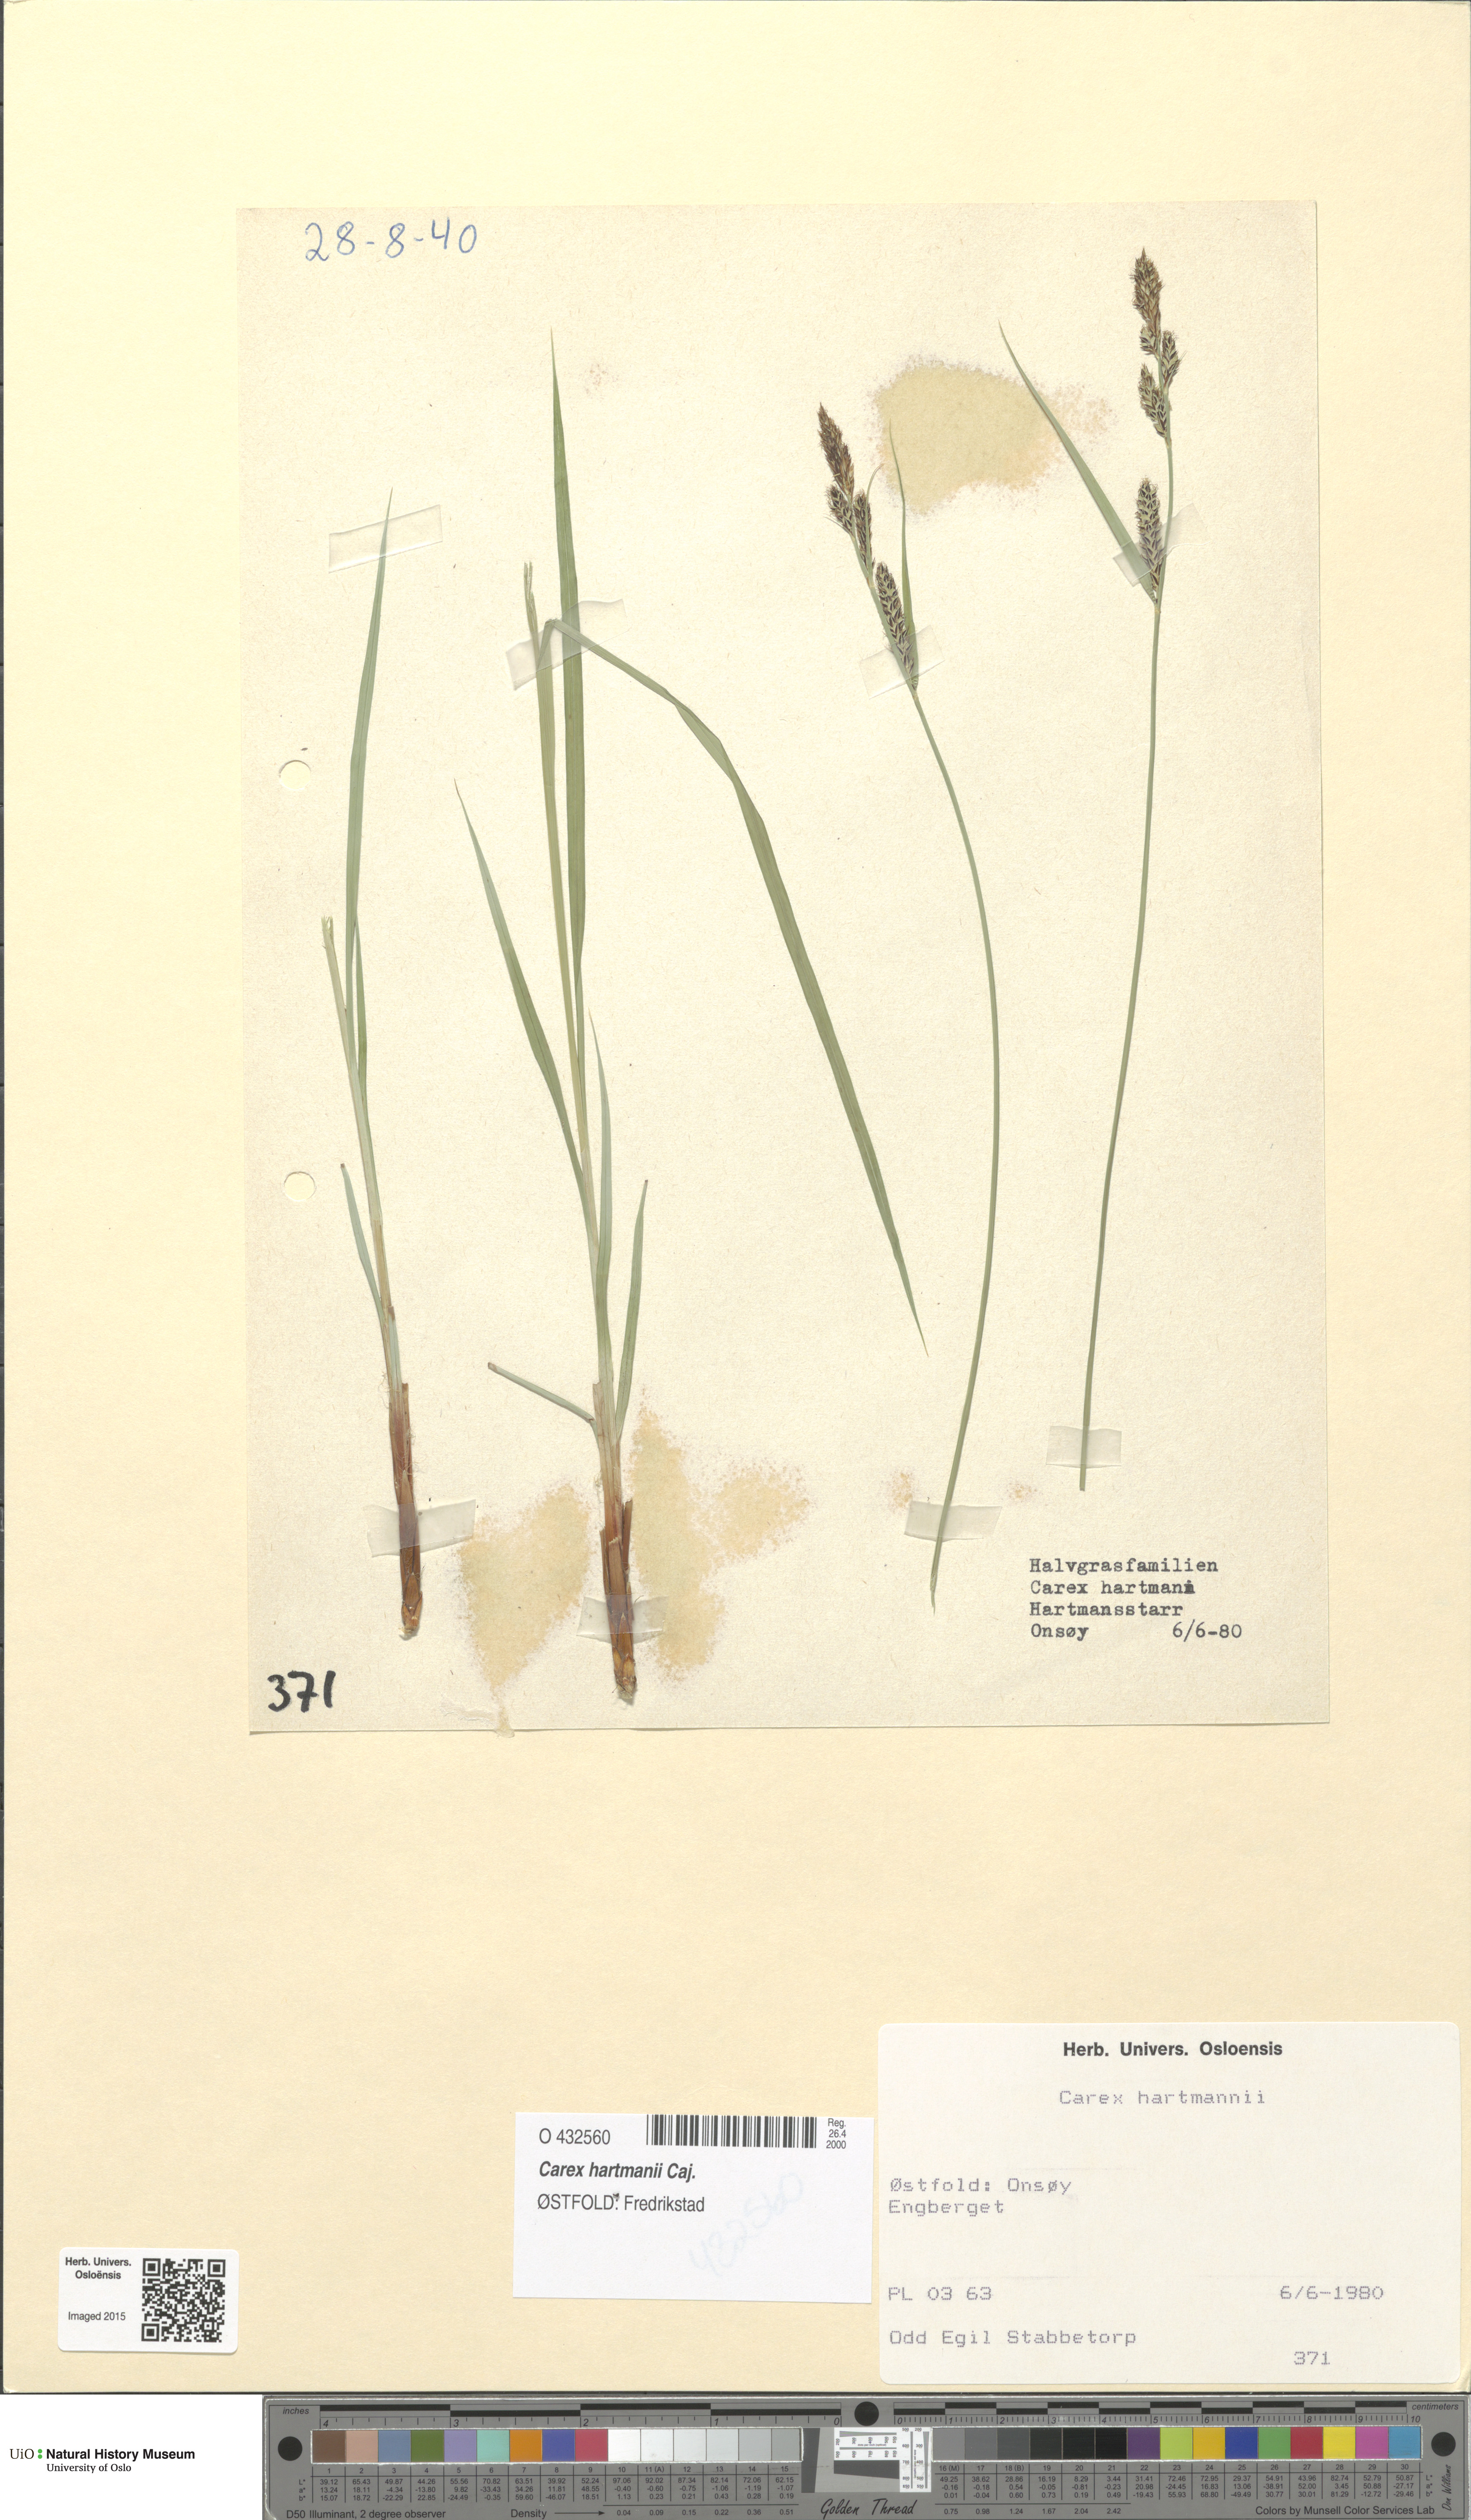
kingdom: Plantae
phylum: Tracheophyta
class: Liliopsida
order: Poales
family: Cyperaceae
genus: Carex
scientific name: Carex hartmaniorum
